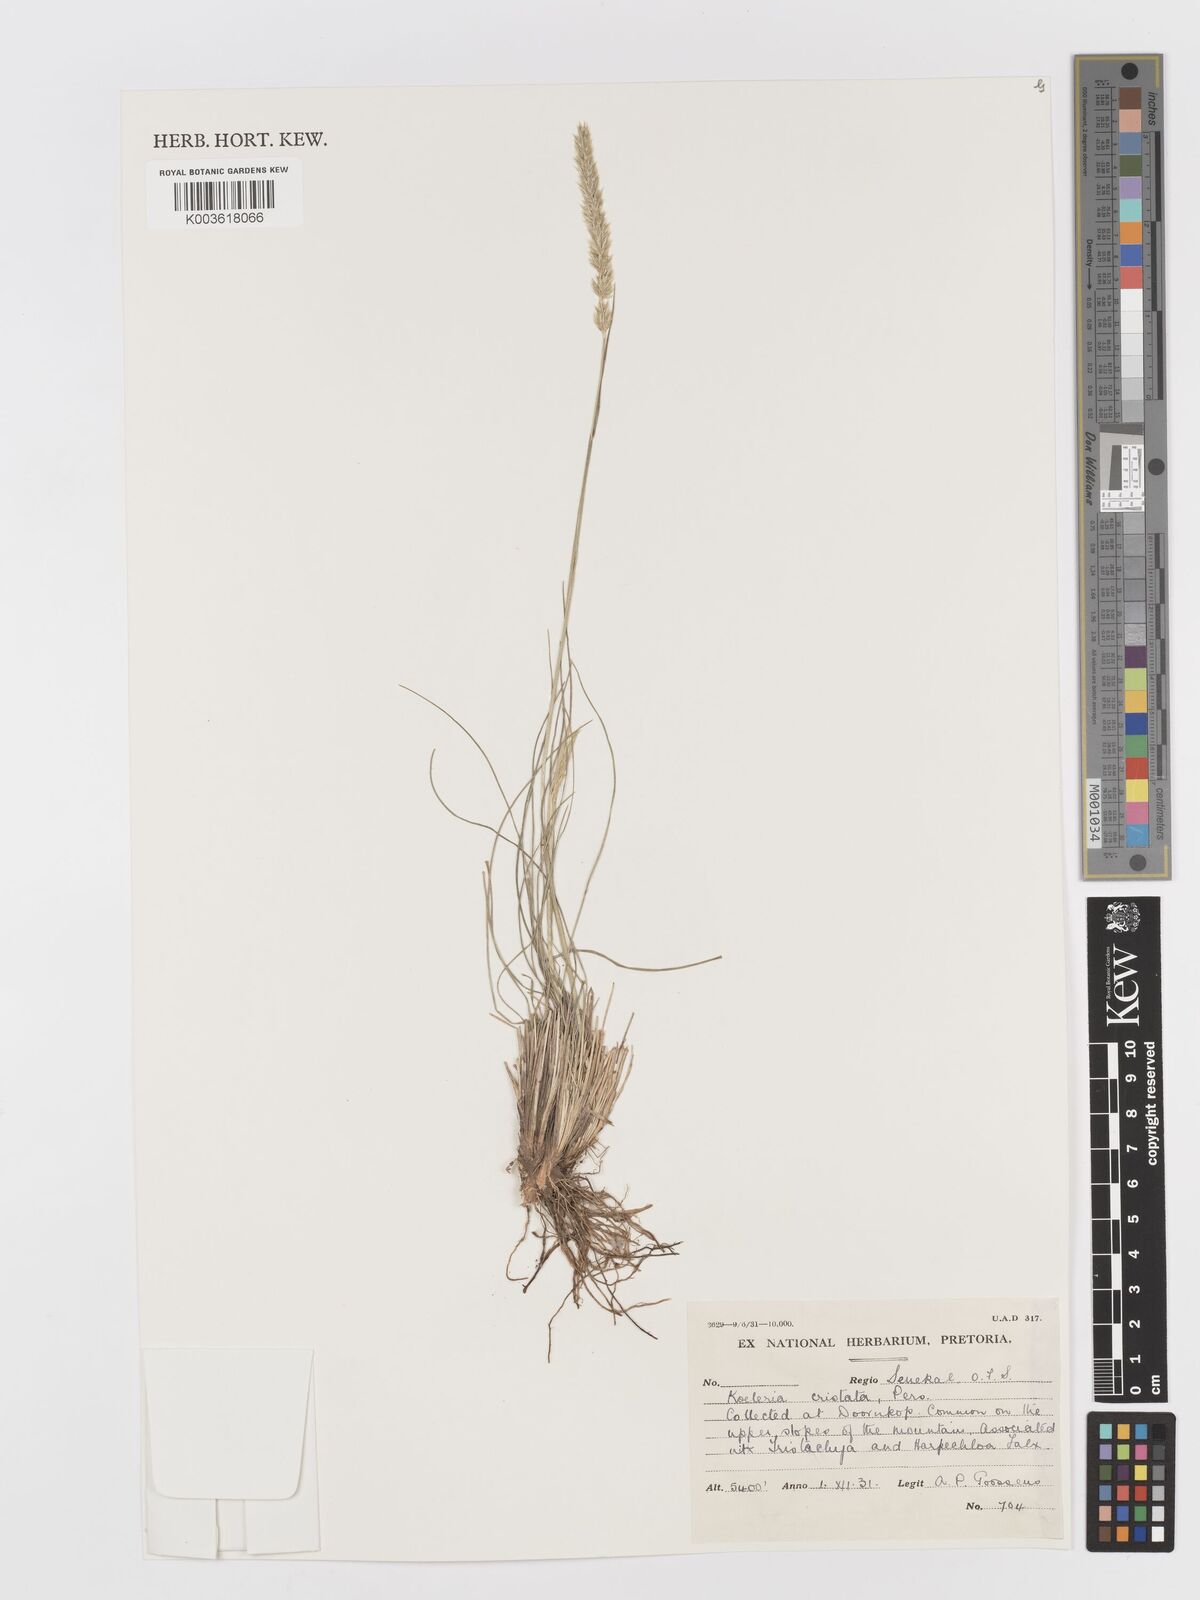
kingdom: Plantae
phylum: Tracheophyta
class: Liliopsida
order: Poales
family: Poaceae
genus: Koeleria
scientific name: Koeleria capensis
